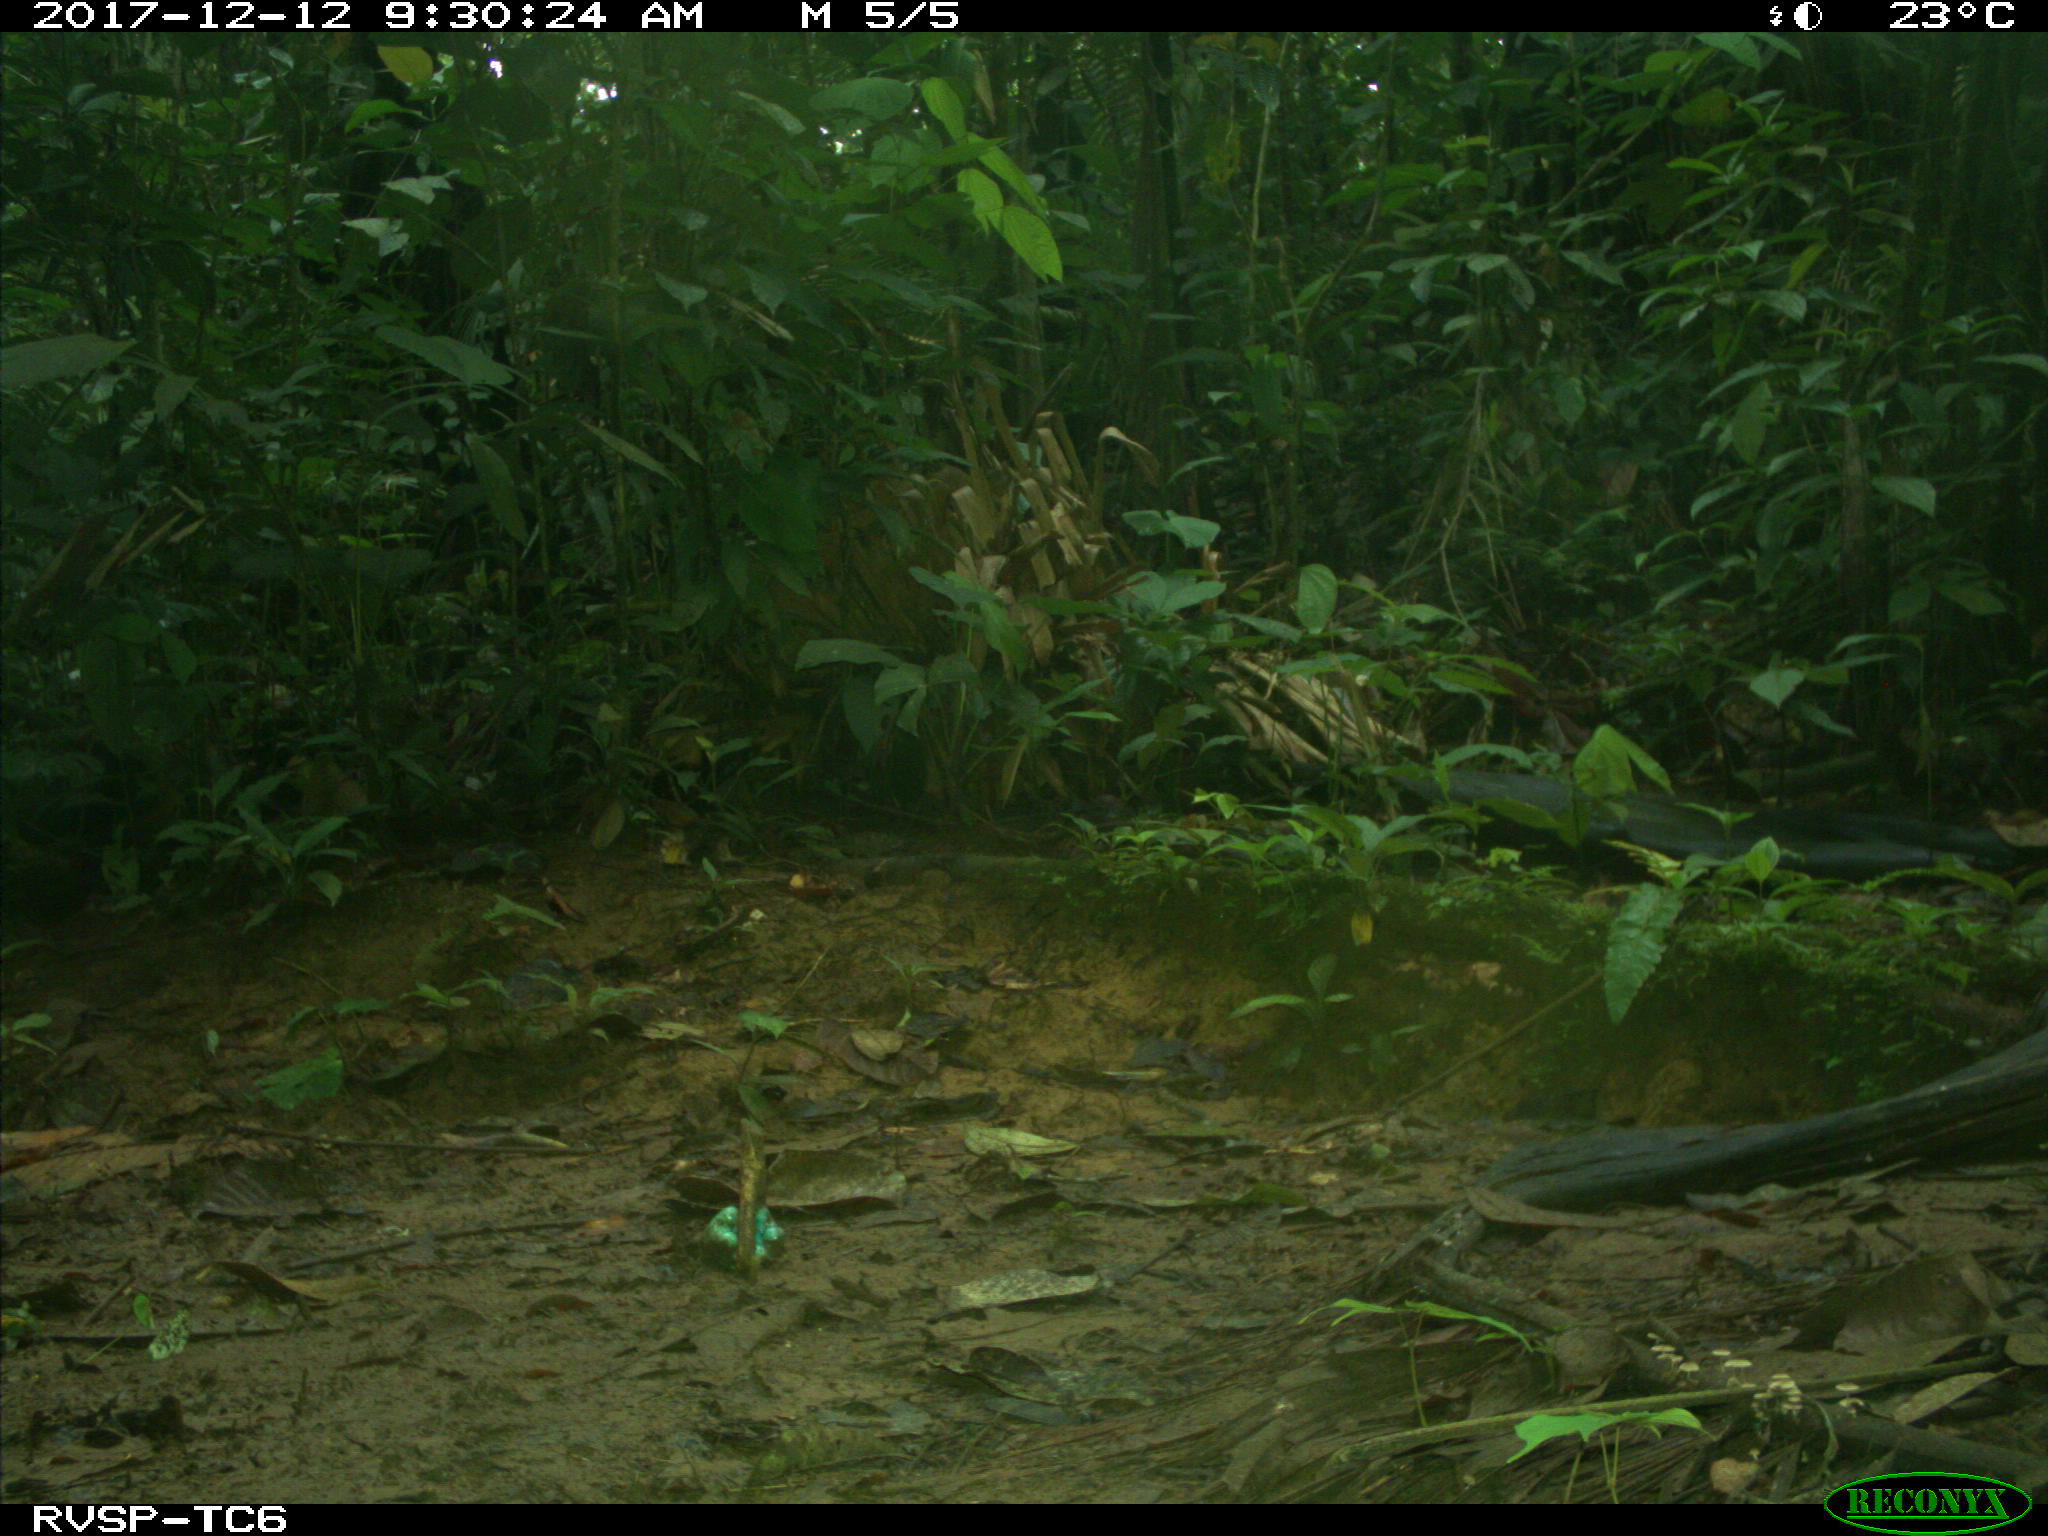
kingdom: Animalia
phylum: Chordata
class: Mammalia
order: Rodentia
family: Dasyproctidae
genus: Dasyprocta
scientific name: Dasyprocta punctata
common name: Central american agouti
